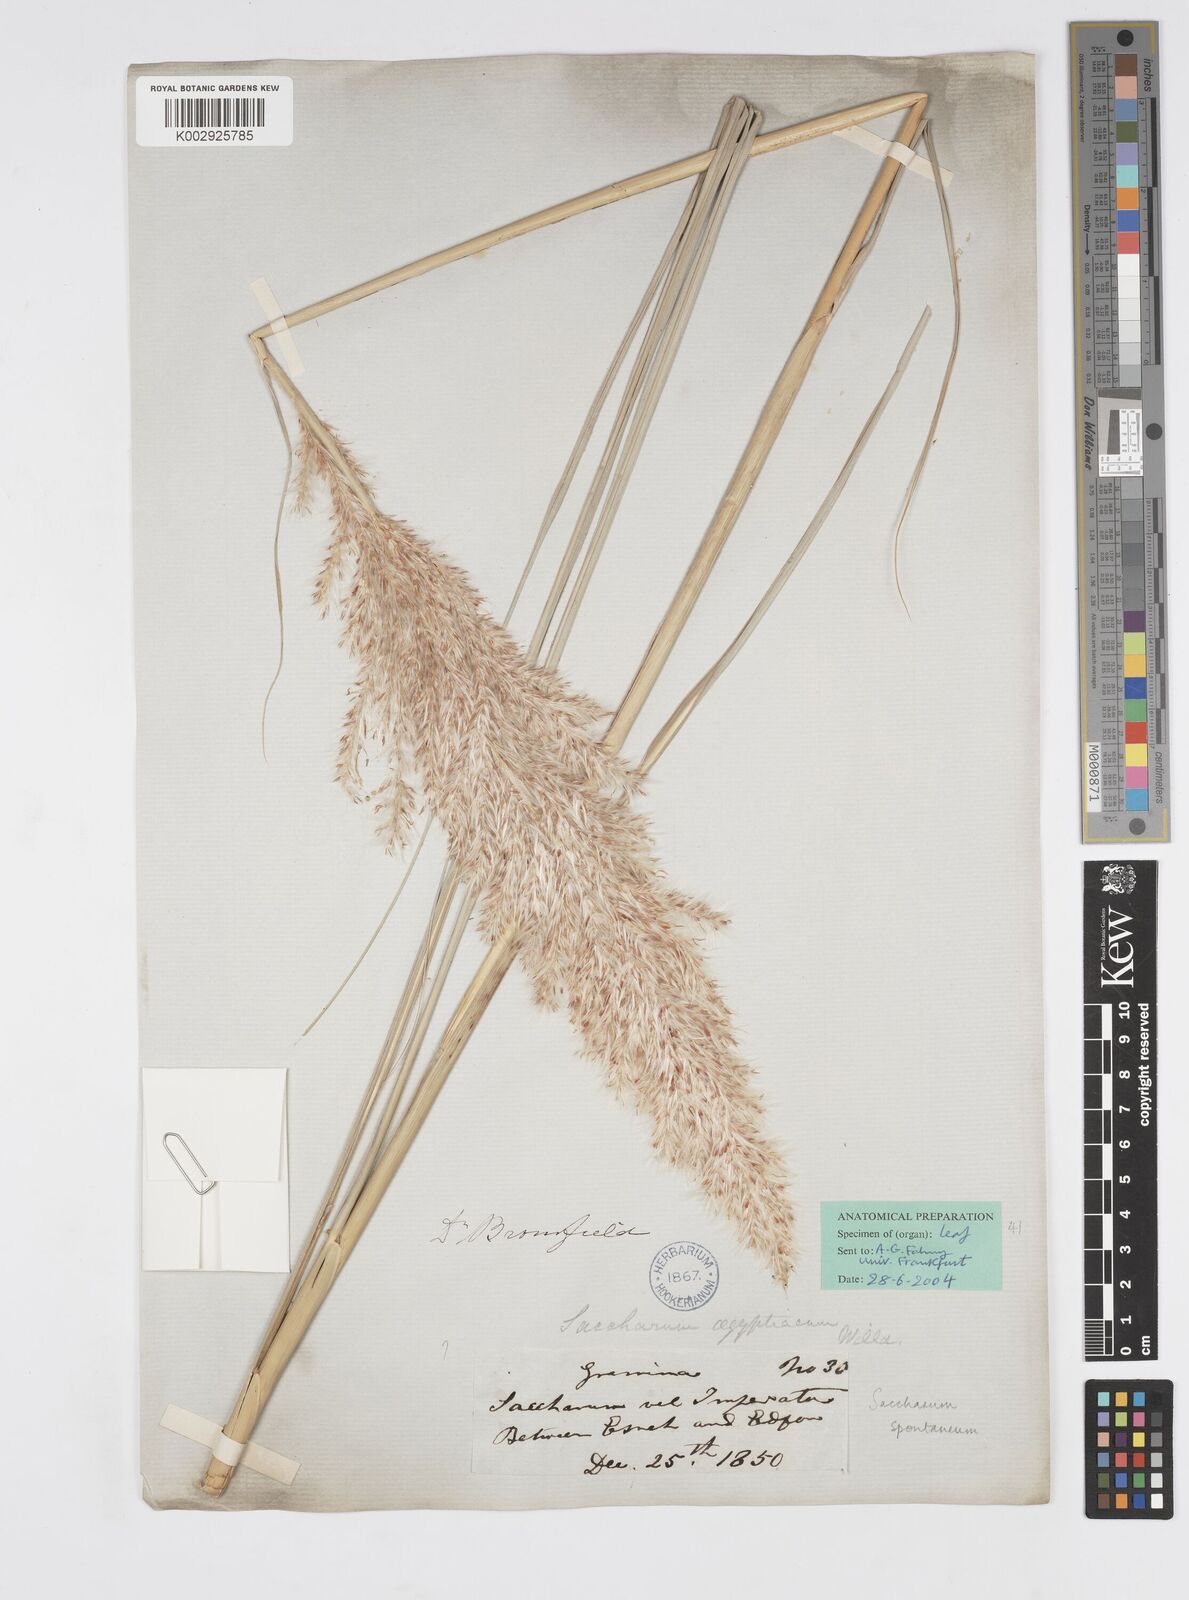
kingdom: Plantae
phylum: Tracheophyta
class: Liliopsida
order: Poales
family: Poaceae
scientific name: Poaceae
